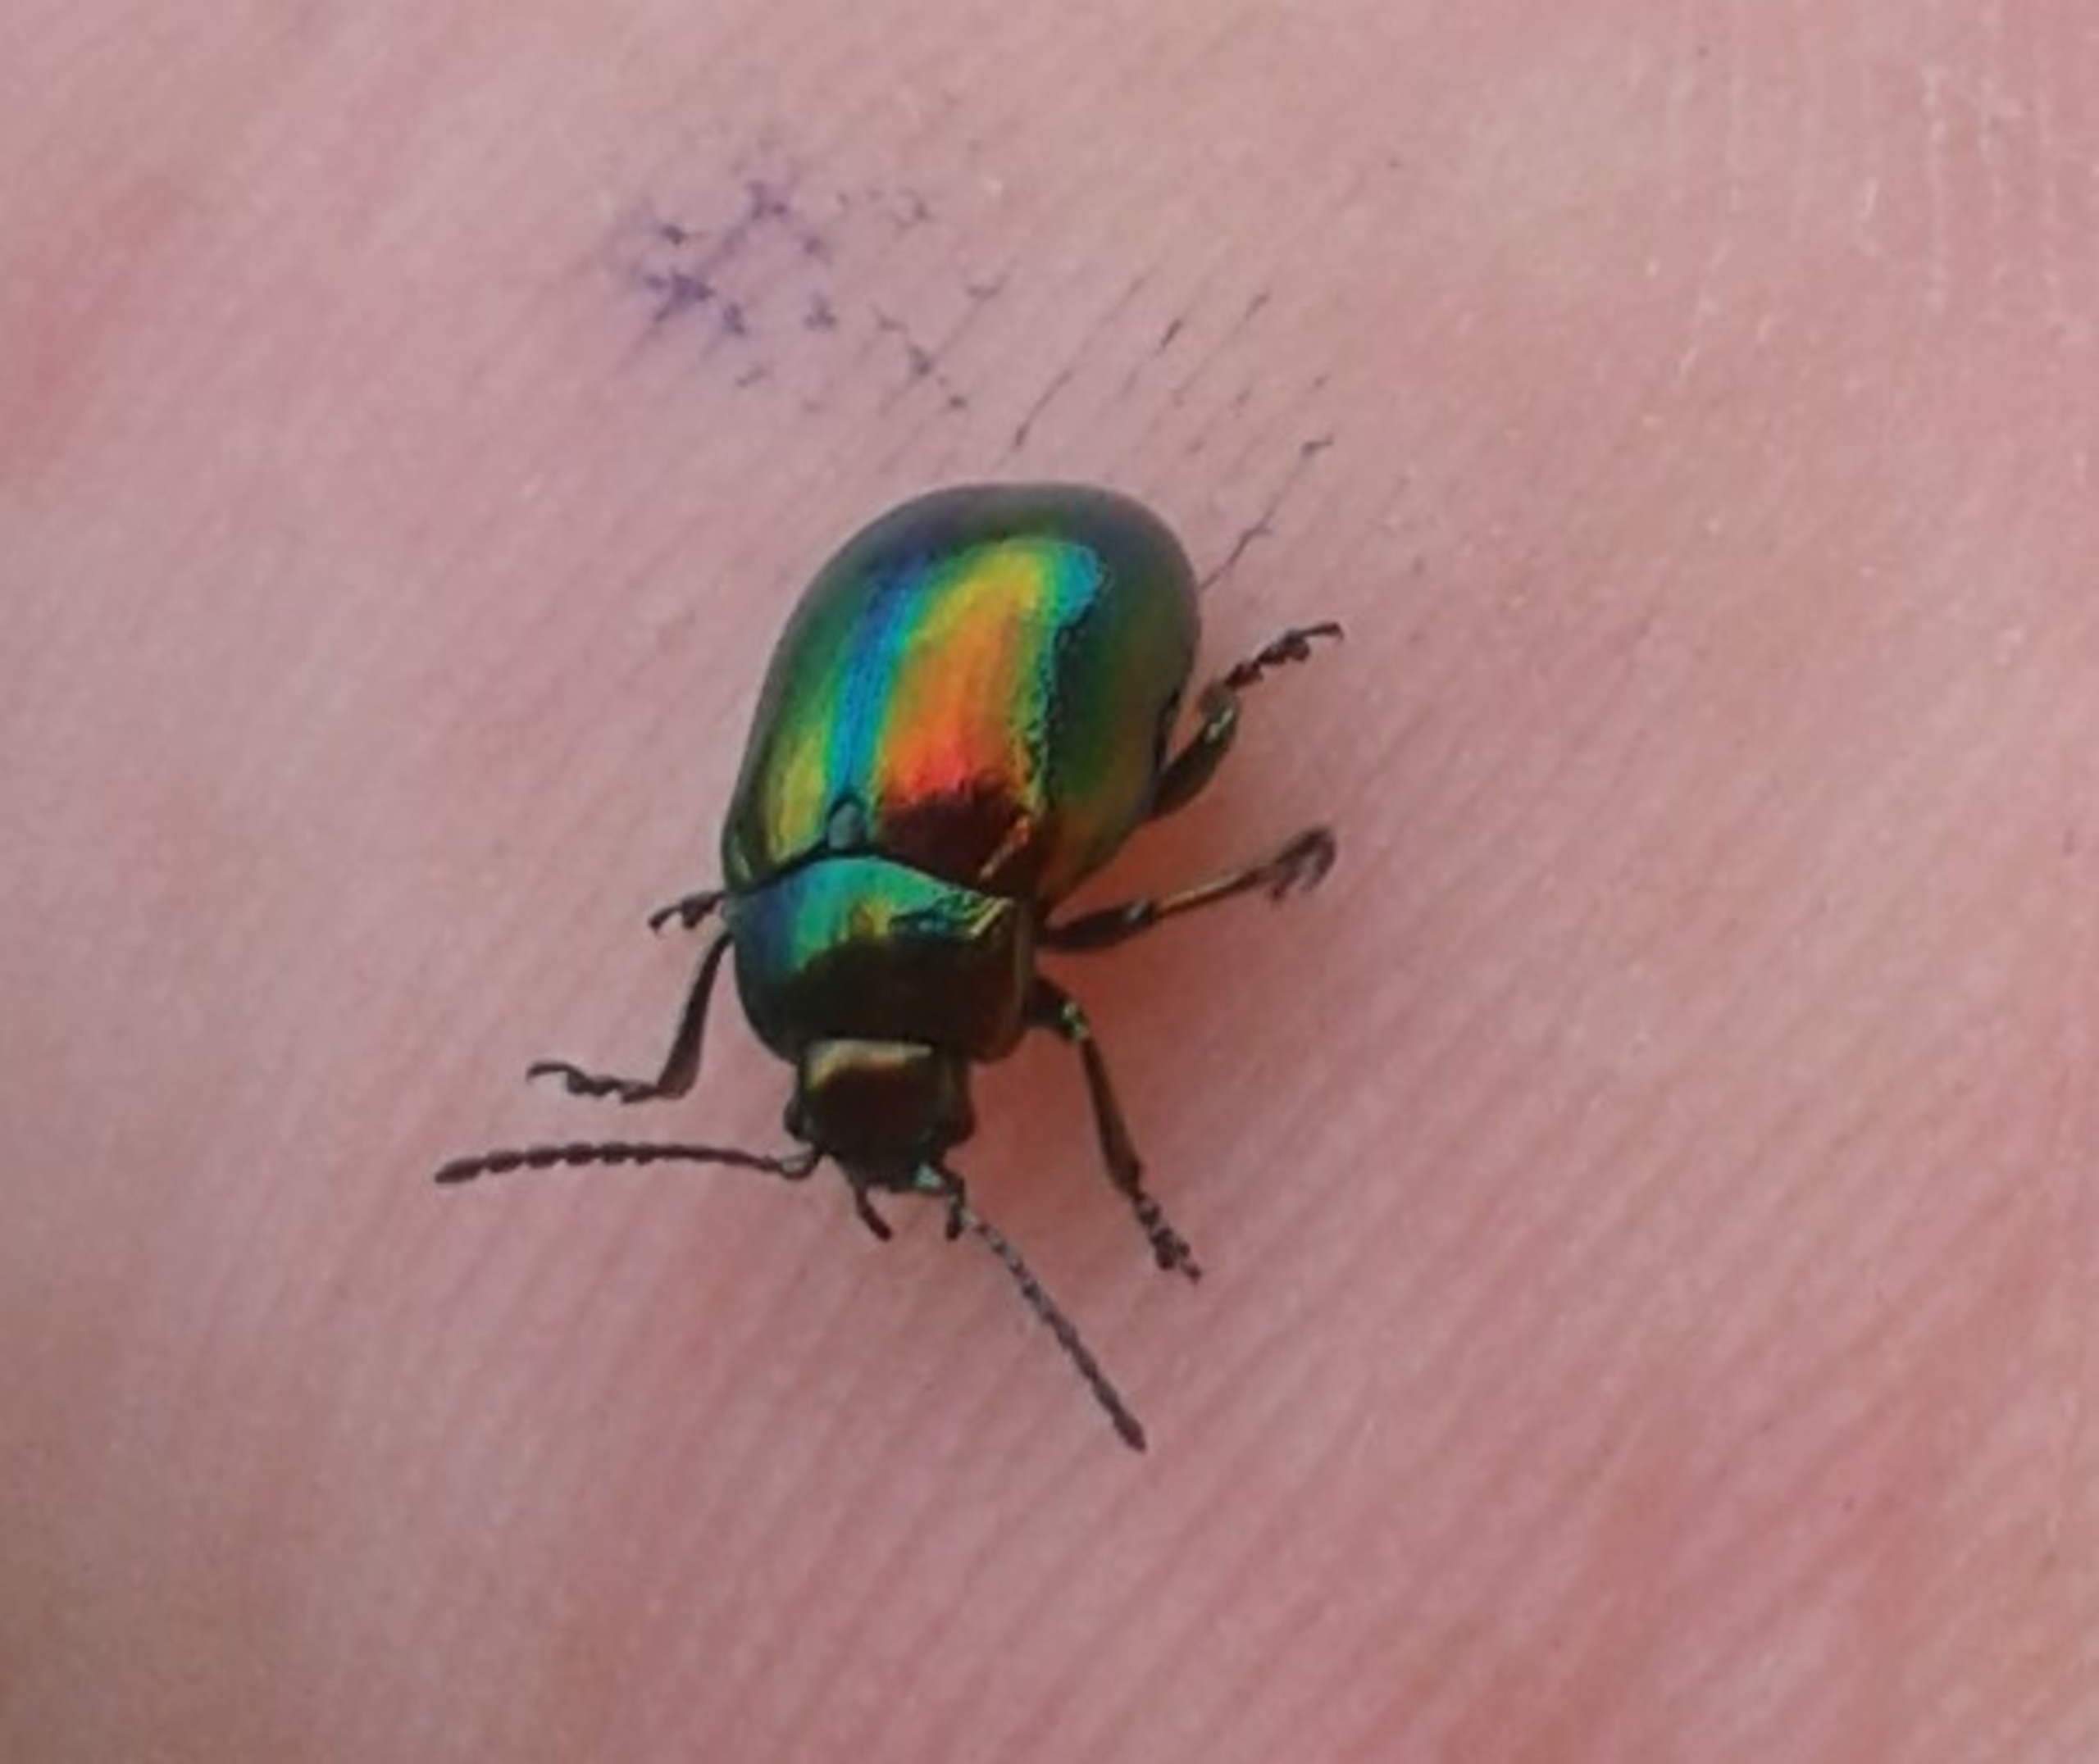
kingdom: Animalia
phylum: Arthropoda
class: Insecta
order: Coleoptera
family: Chrysomelidae
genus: Chrysolina
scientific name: Chrysolina fastuosa
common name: Tvetandbladbille
